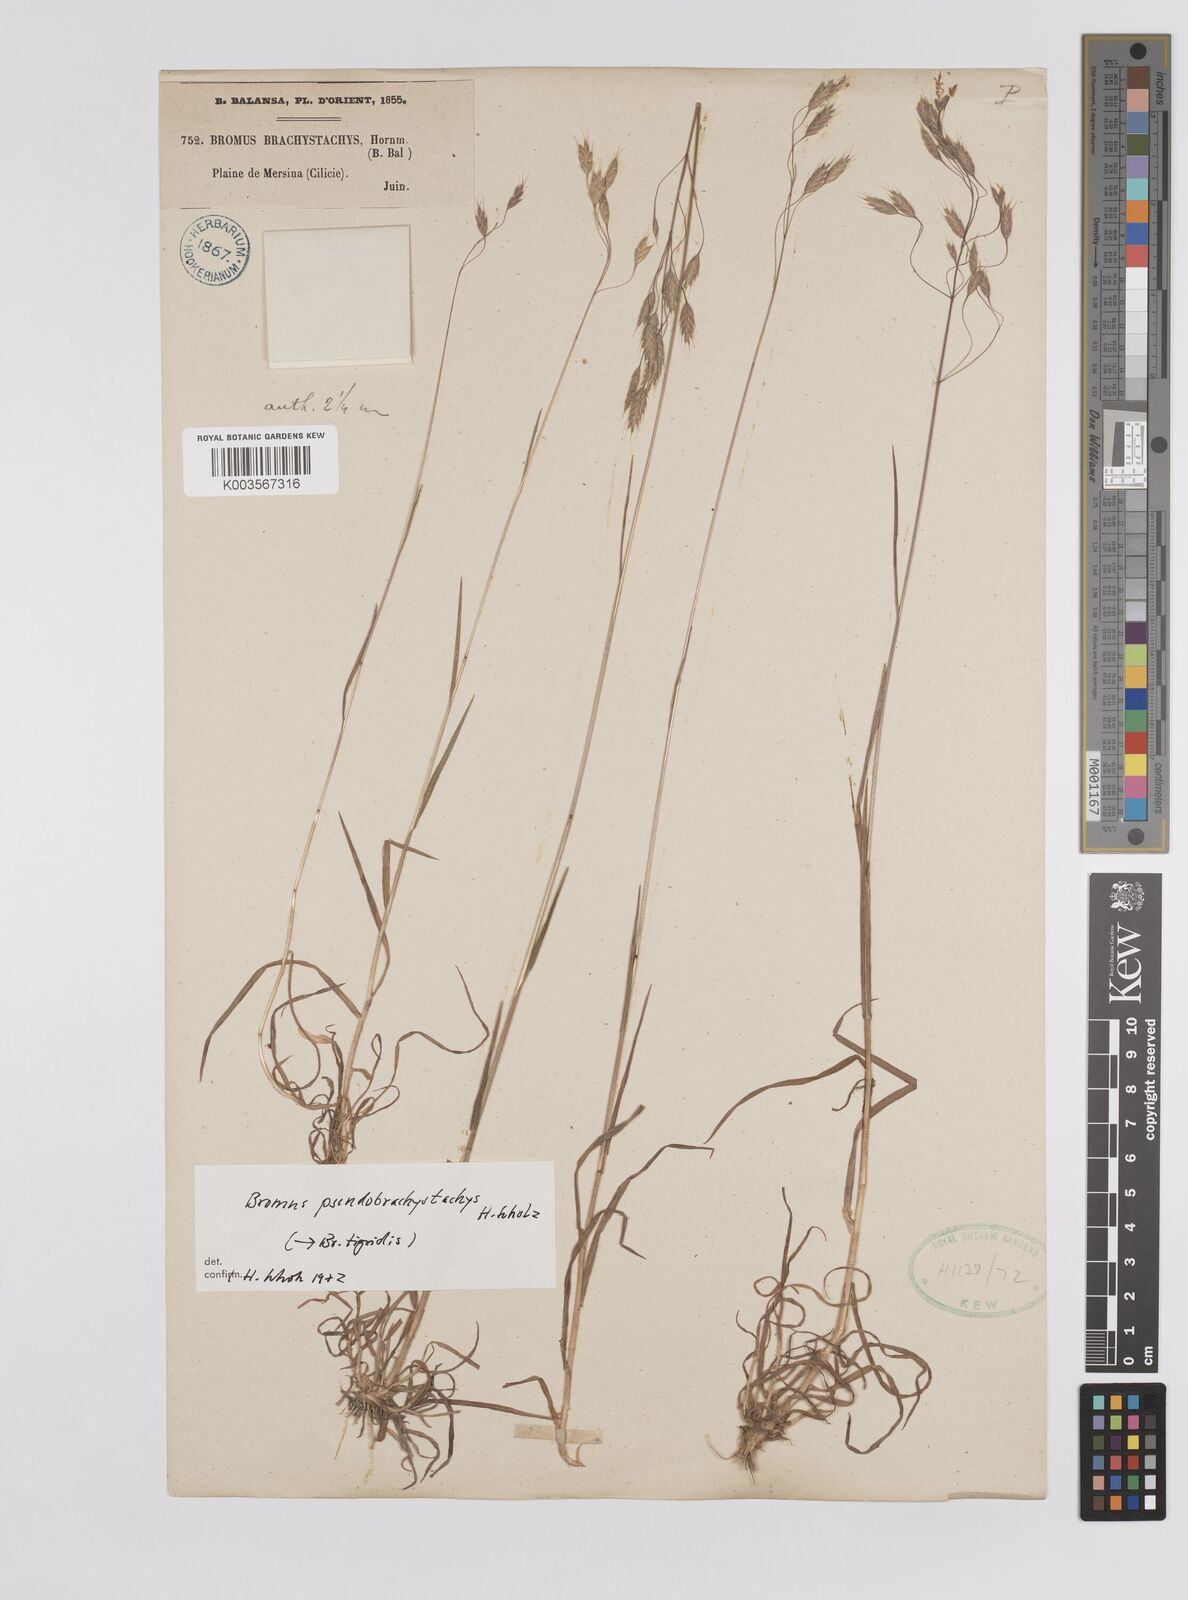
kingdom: Plantae
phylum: Tracheophyta
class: Liliopsida
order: Poales
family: Poaceae
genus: Bromus
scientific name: Bromus pseudobrachystachys
